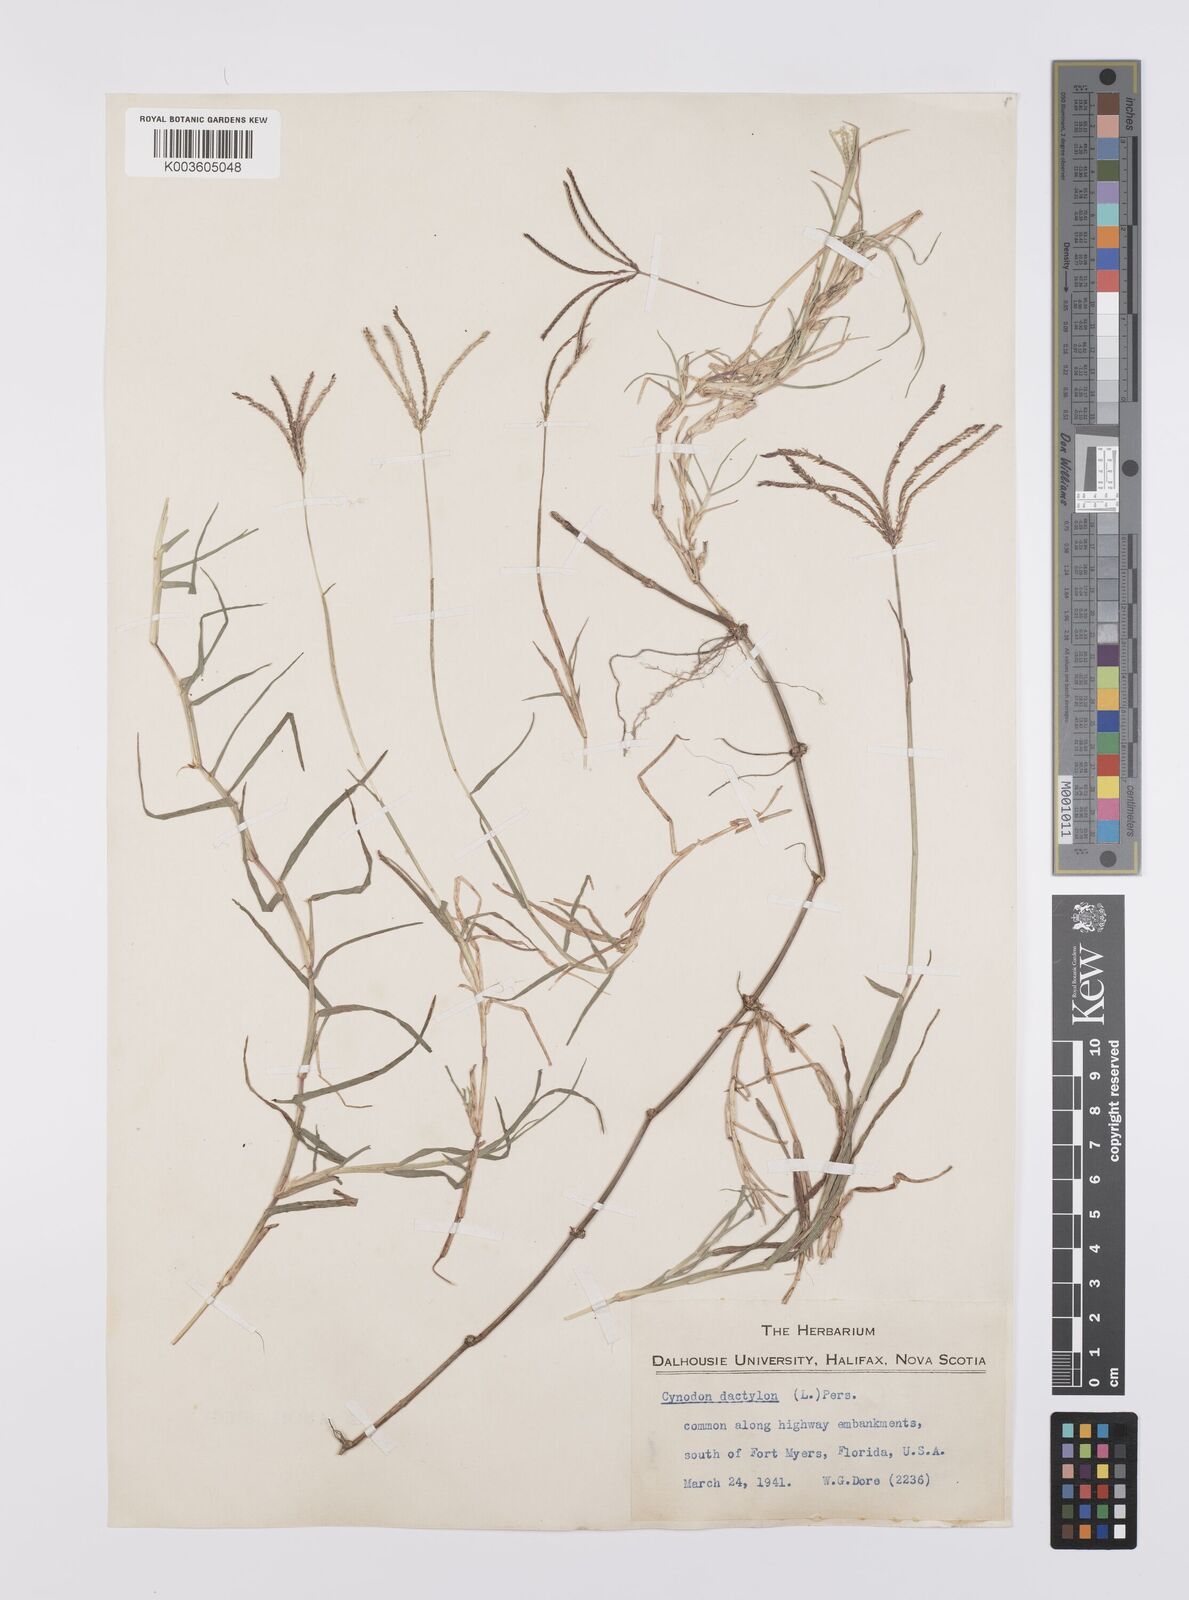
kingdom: Plantae
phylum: Tracheophyta
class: Liliopsida
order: Poales
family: Poaceae
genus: Cynodon
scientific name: Cynodon dactylon
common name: Bermuda grass
